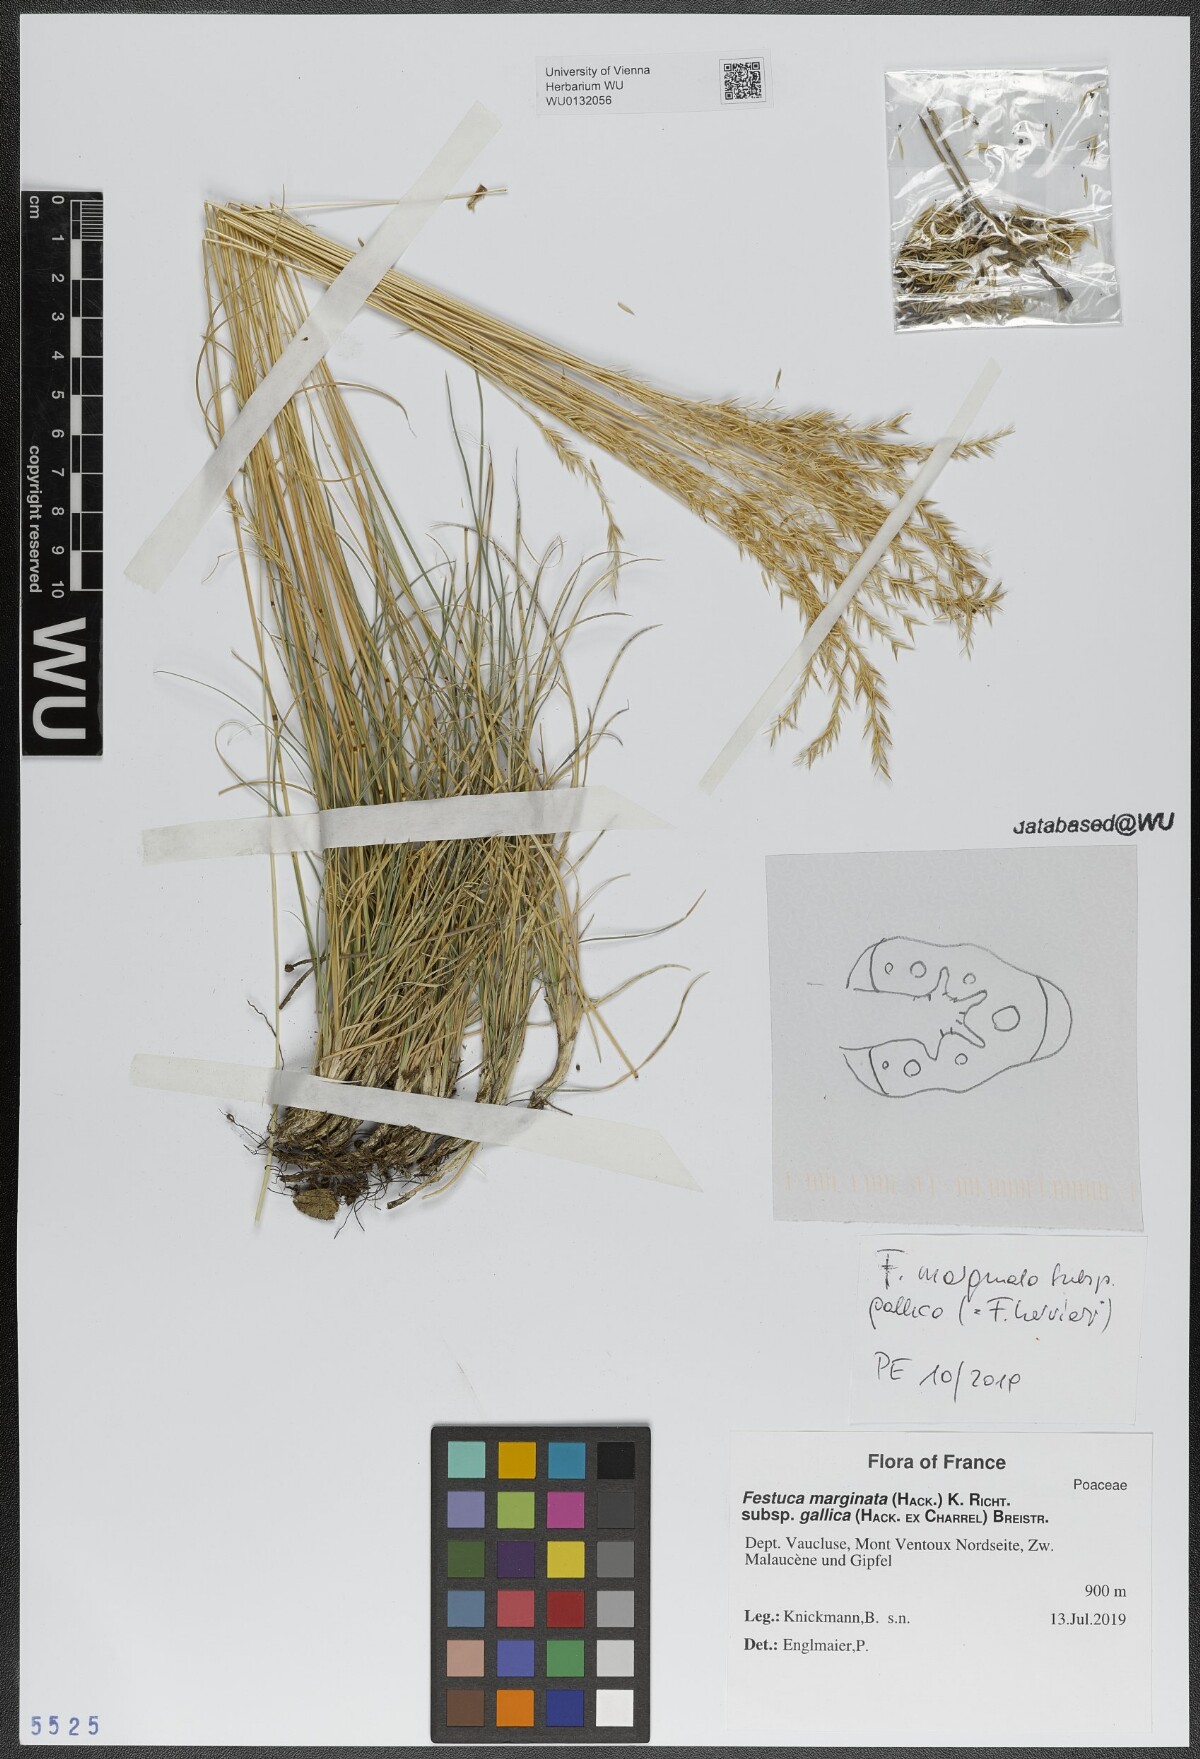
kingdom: Plantae
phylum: Tracheophyta
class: Liliopsida
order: Poales
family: Poaceae
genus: Festuca
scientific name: Festuca marginata
